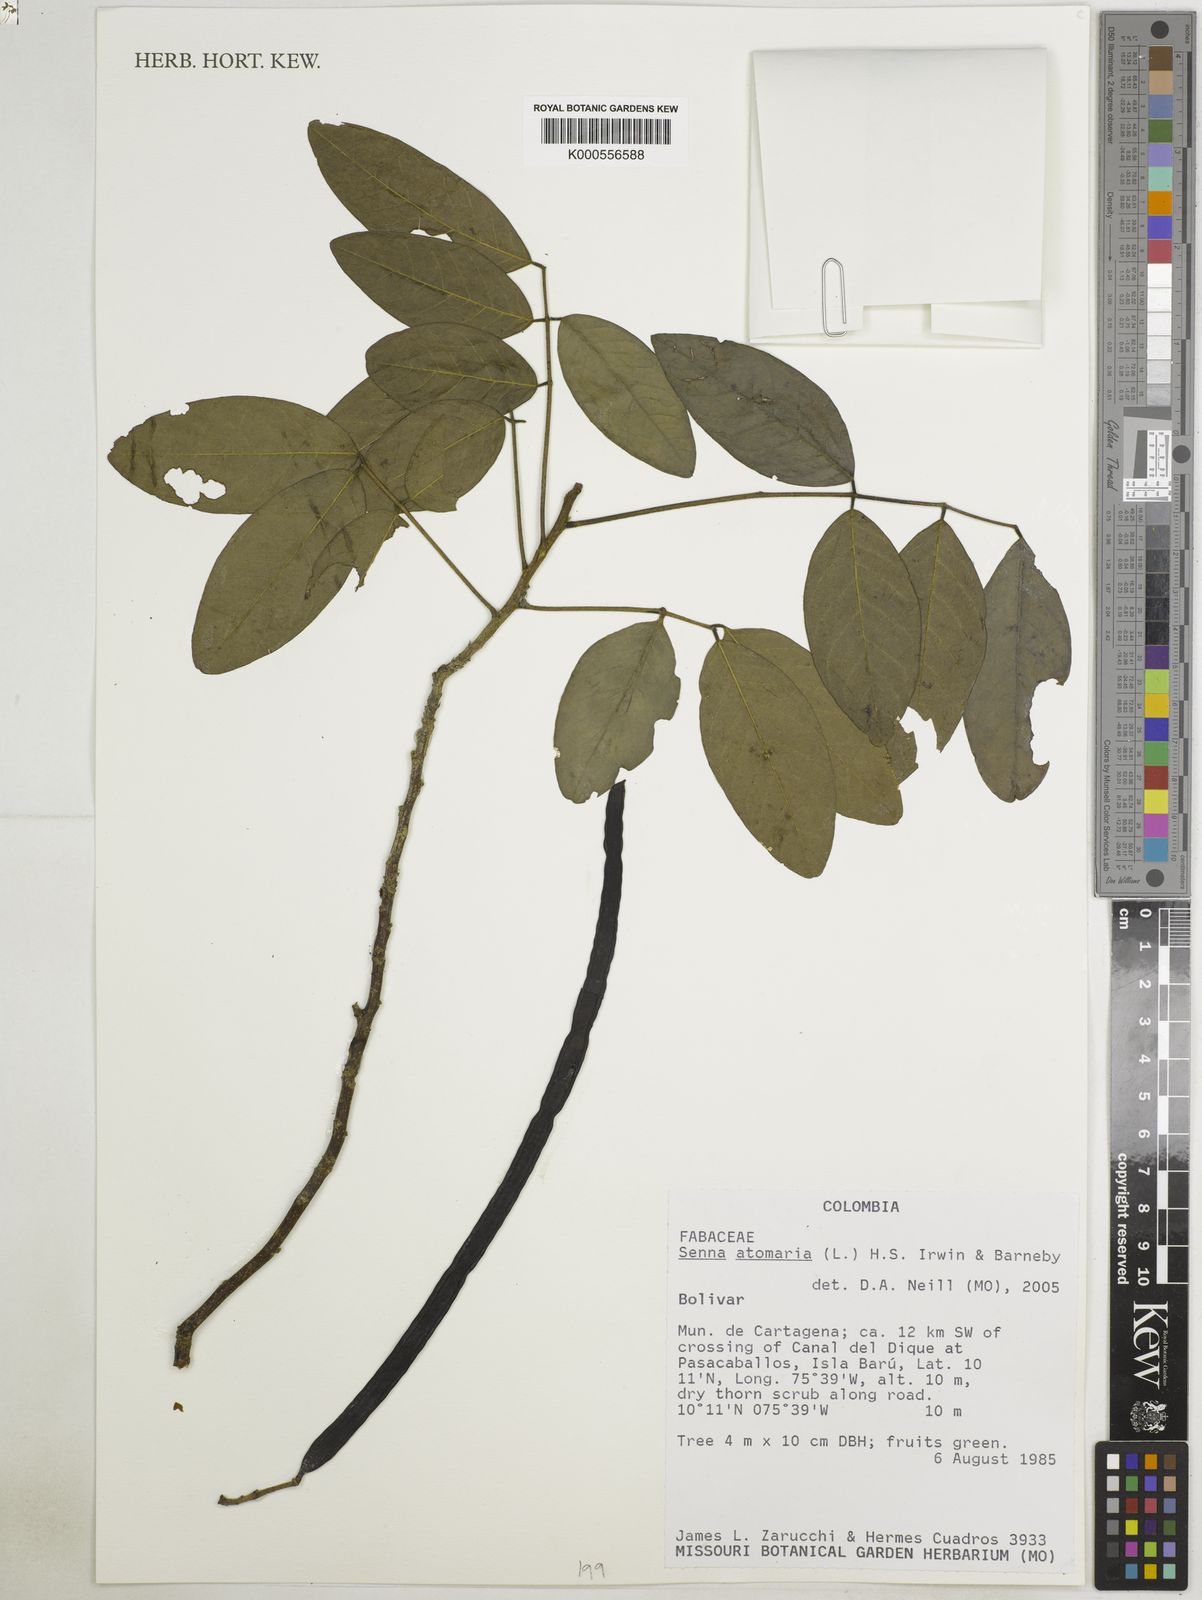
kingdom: Plantae
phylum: Tracheophyta
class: Magnoliopsida
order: Fabales
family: Fabaceae
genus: Senna
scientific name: Senna atomaria
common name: Flor de san jose
